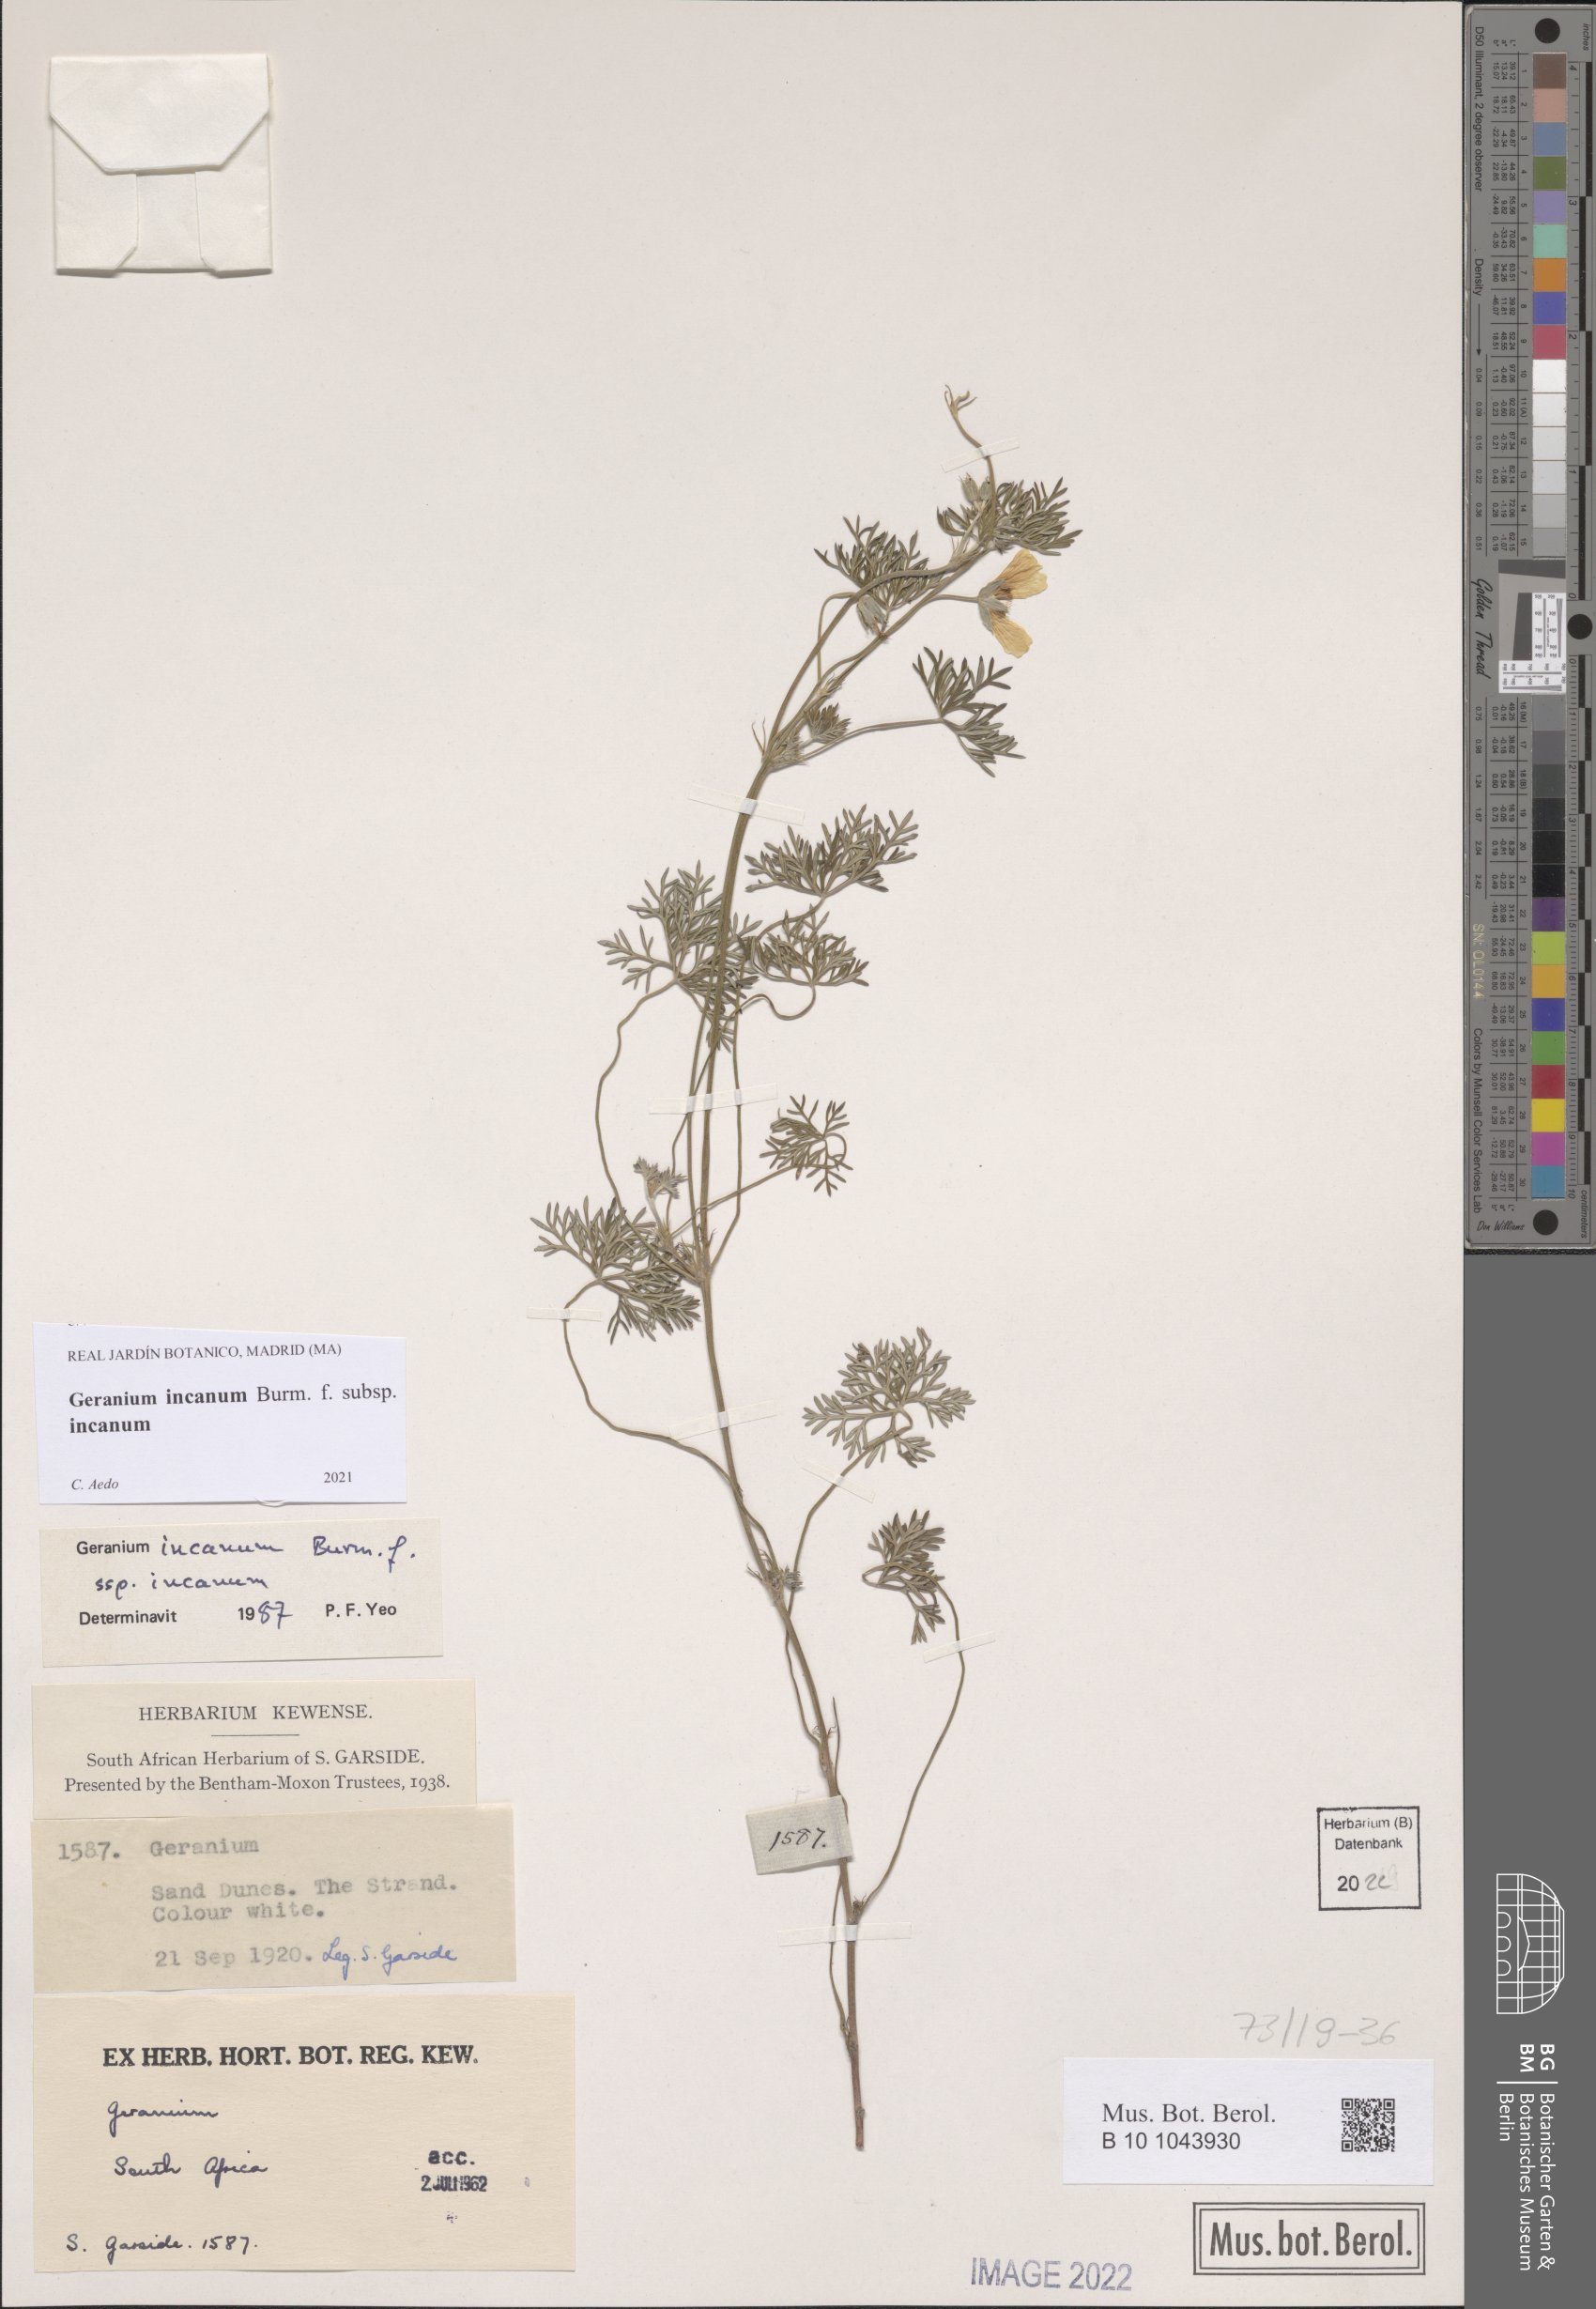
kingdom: Plantae
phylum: Tracheophyta
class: Magnoliopsida
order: Geraniales
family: Geraniaceae
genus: Geranium
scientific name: Geranium incanum
